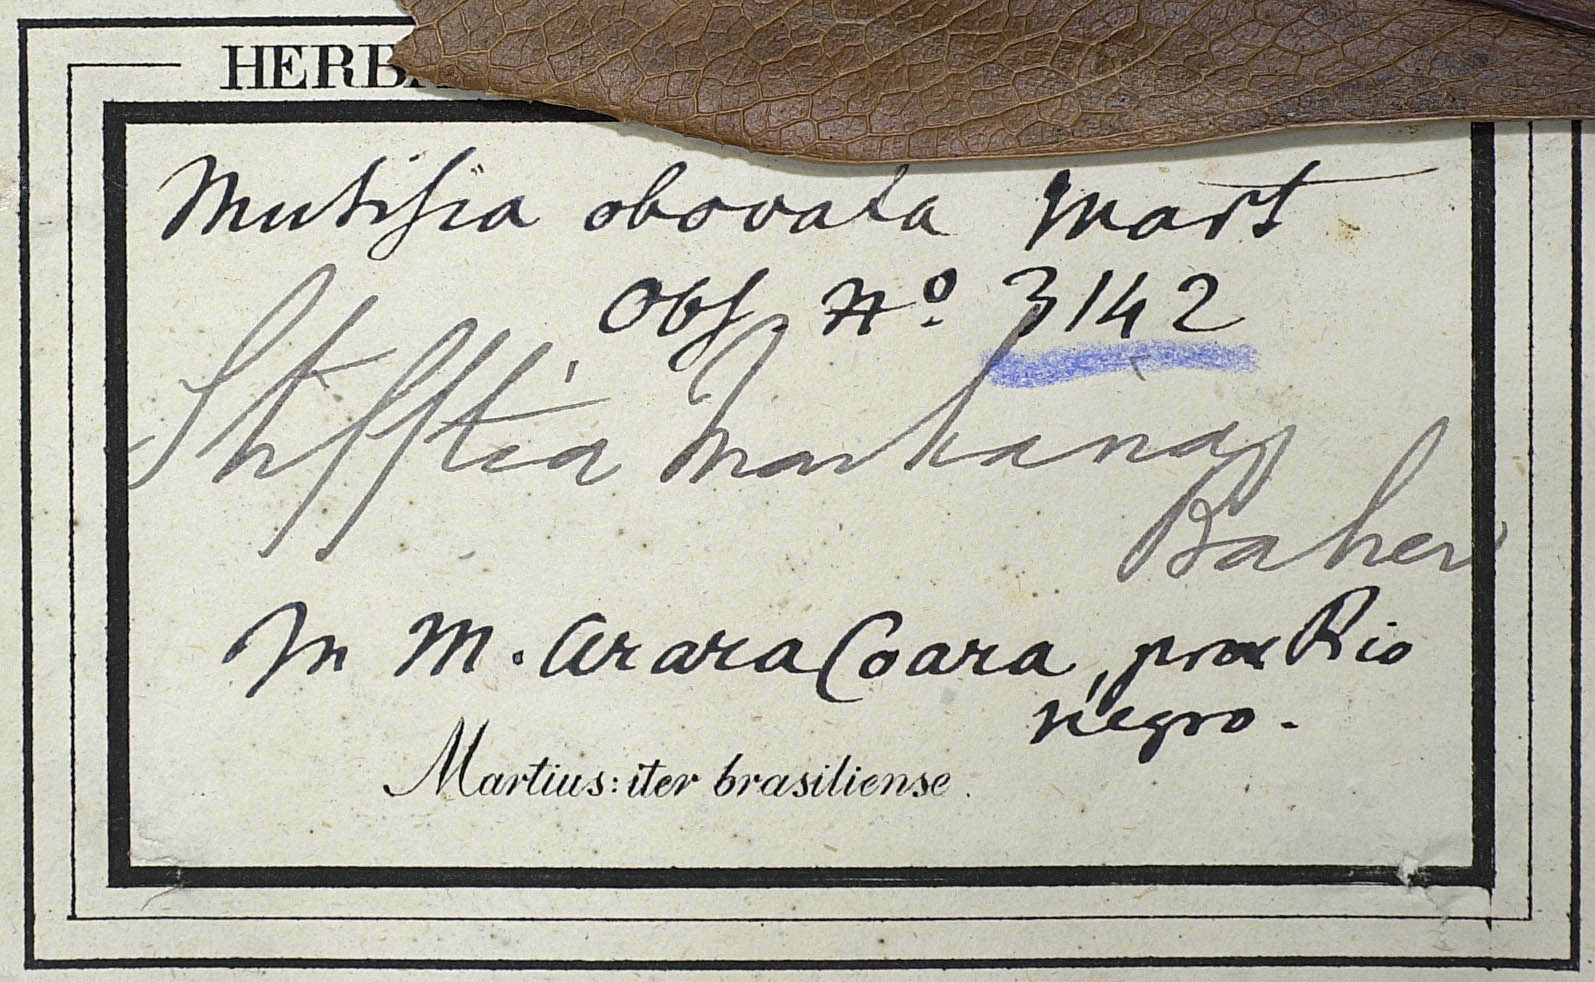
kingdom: Plantae
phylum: Tracheophyta
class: Magnoliopsida
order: Asterales
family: Asteraceae
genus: Gongylolepis
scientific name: Gongylolepis martiana
